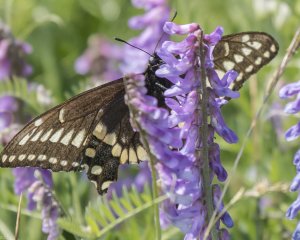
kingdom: Animalia
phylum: Arthropoda
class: Insecta
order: Lepidoptera
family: Papilionidae
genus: Papilio
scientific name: Papilio brevicauda
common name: Short-tailed Swallowtail
